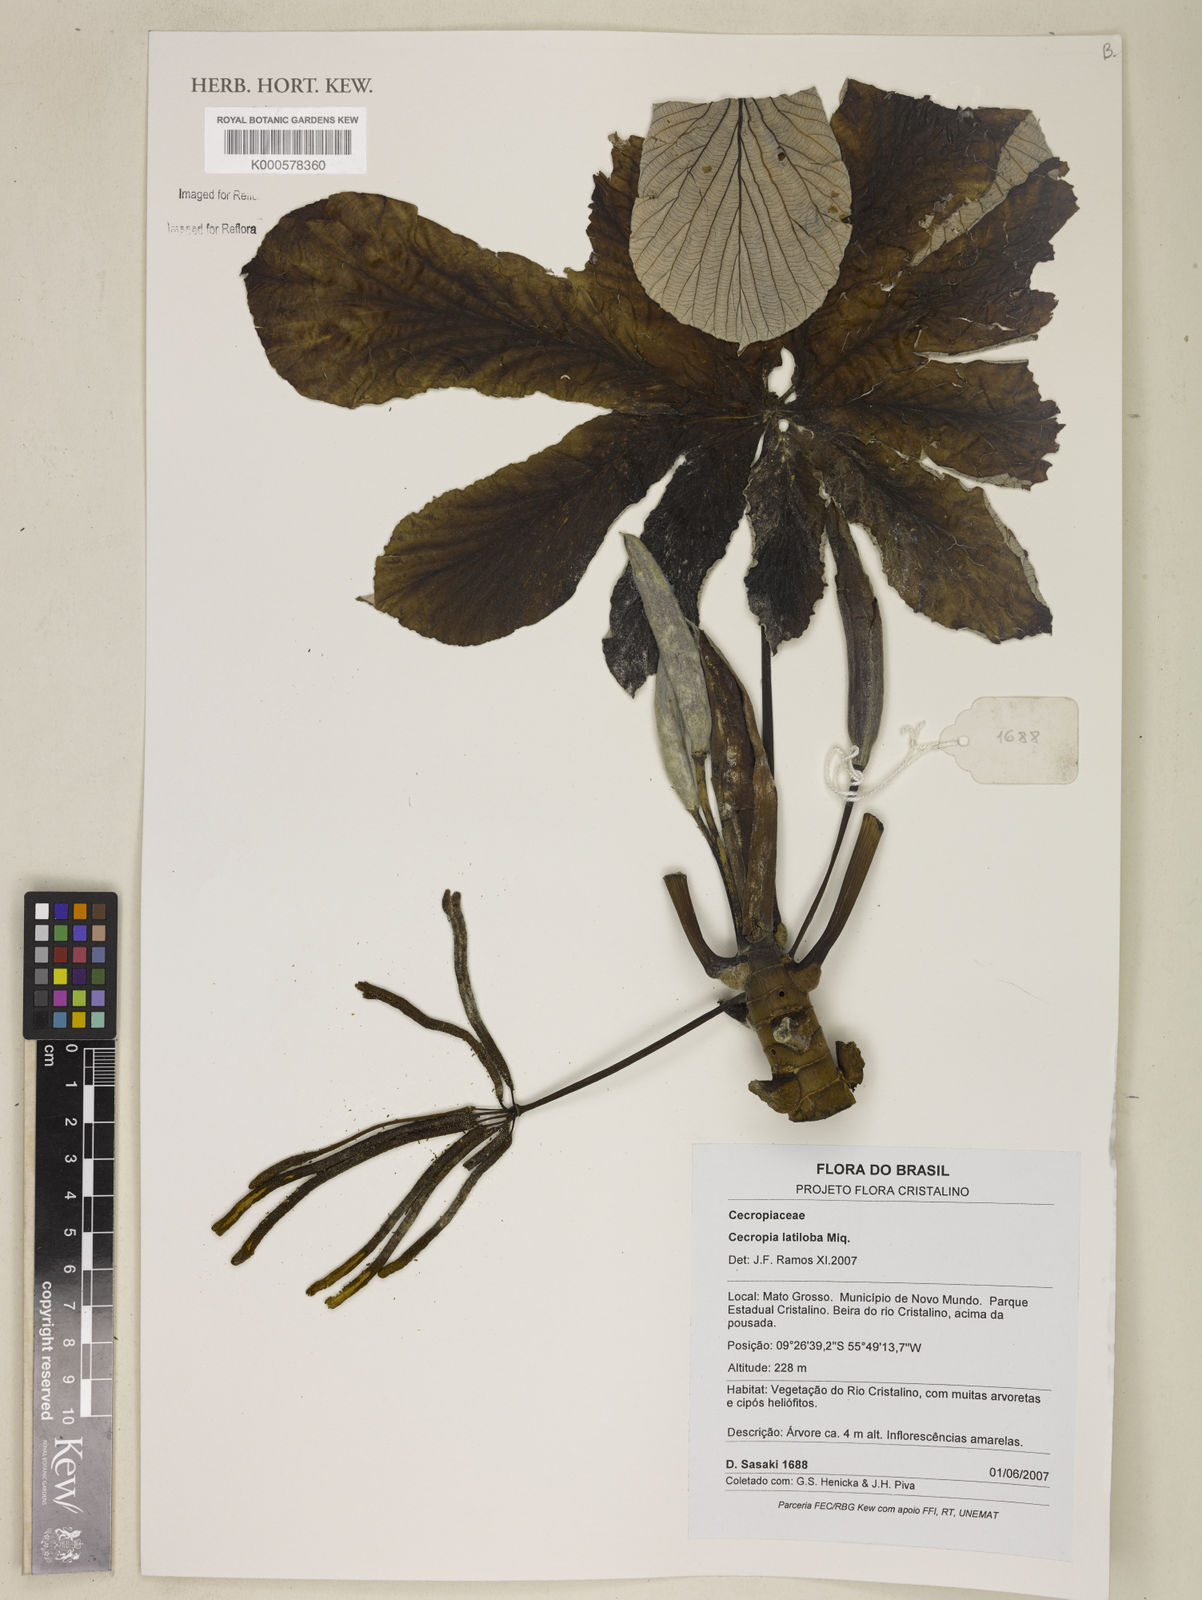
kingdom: Plantae
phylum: Tracheophyta
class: Magnoliopsida
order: Rosales
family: Urticaceae
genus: Cecropia
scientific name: Cecropia latiloba
